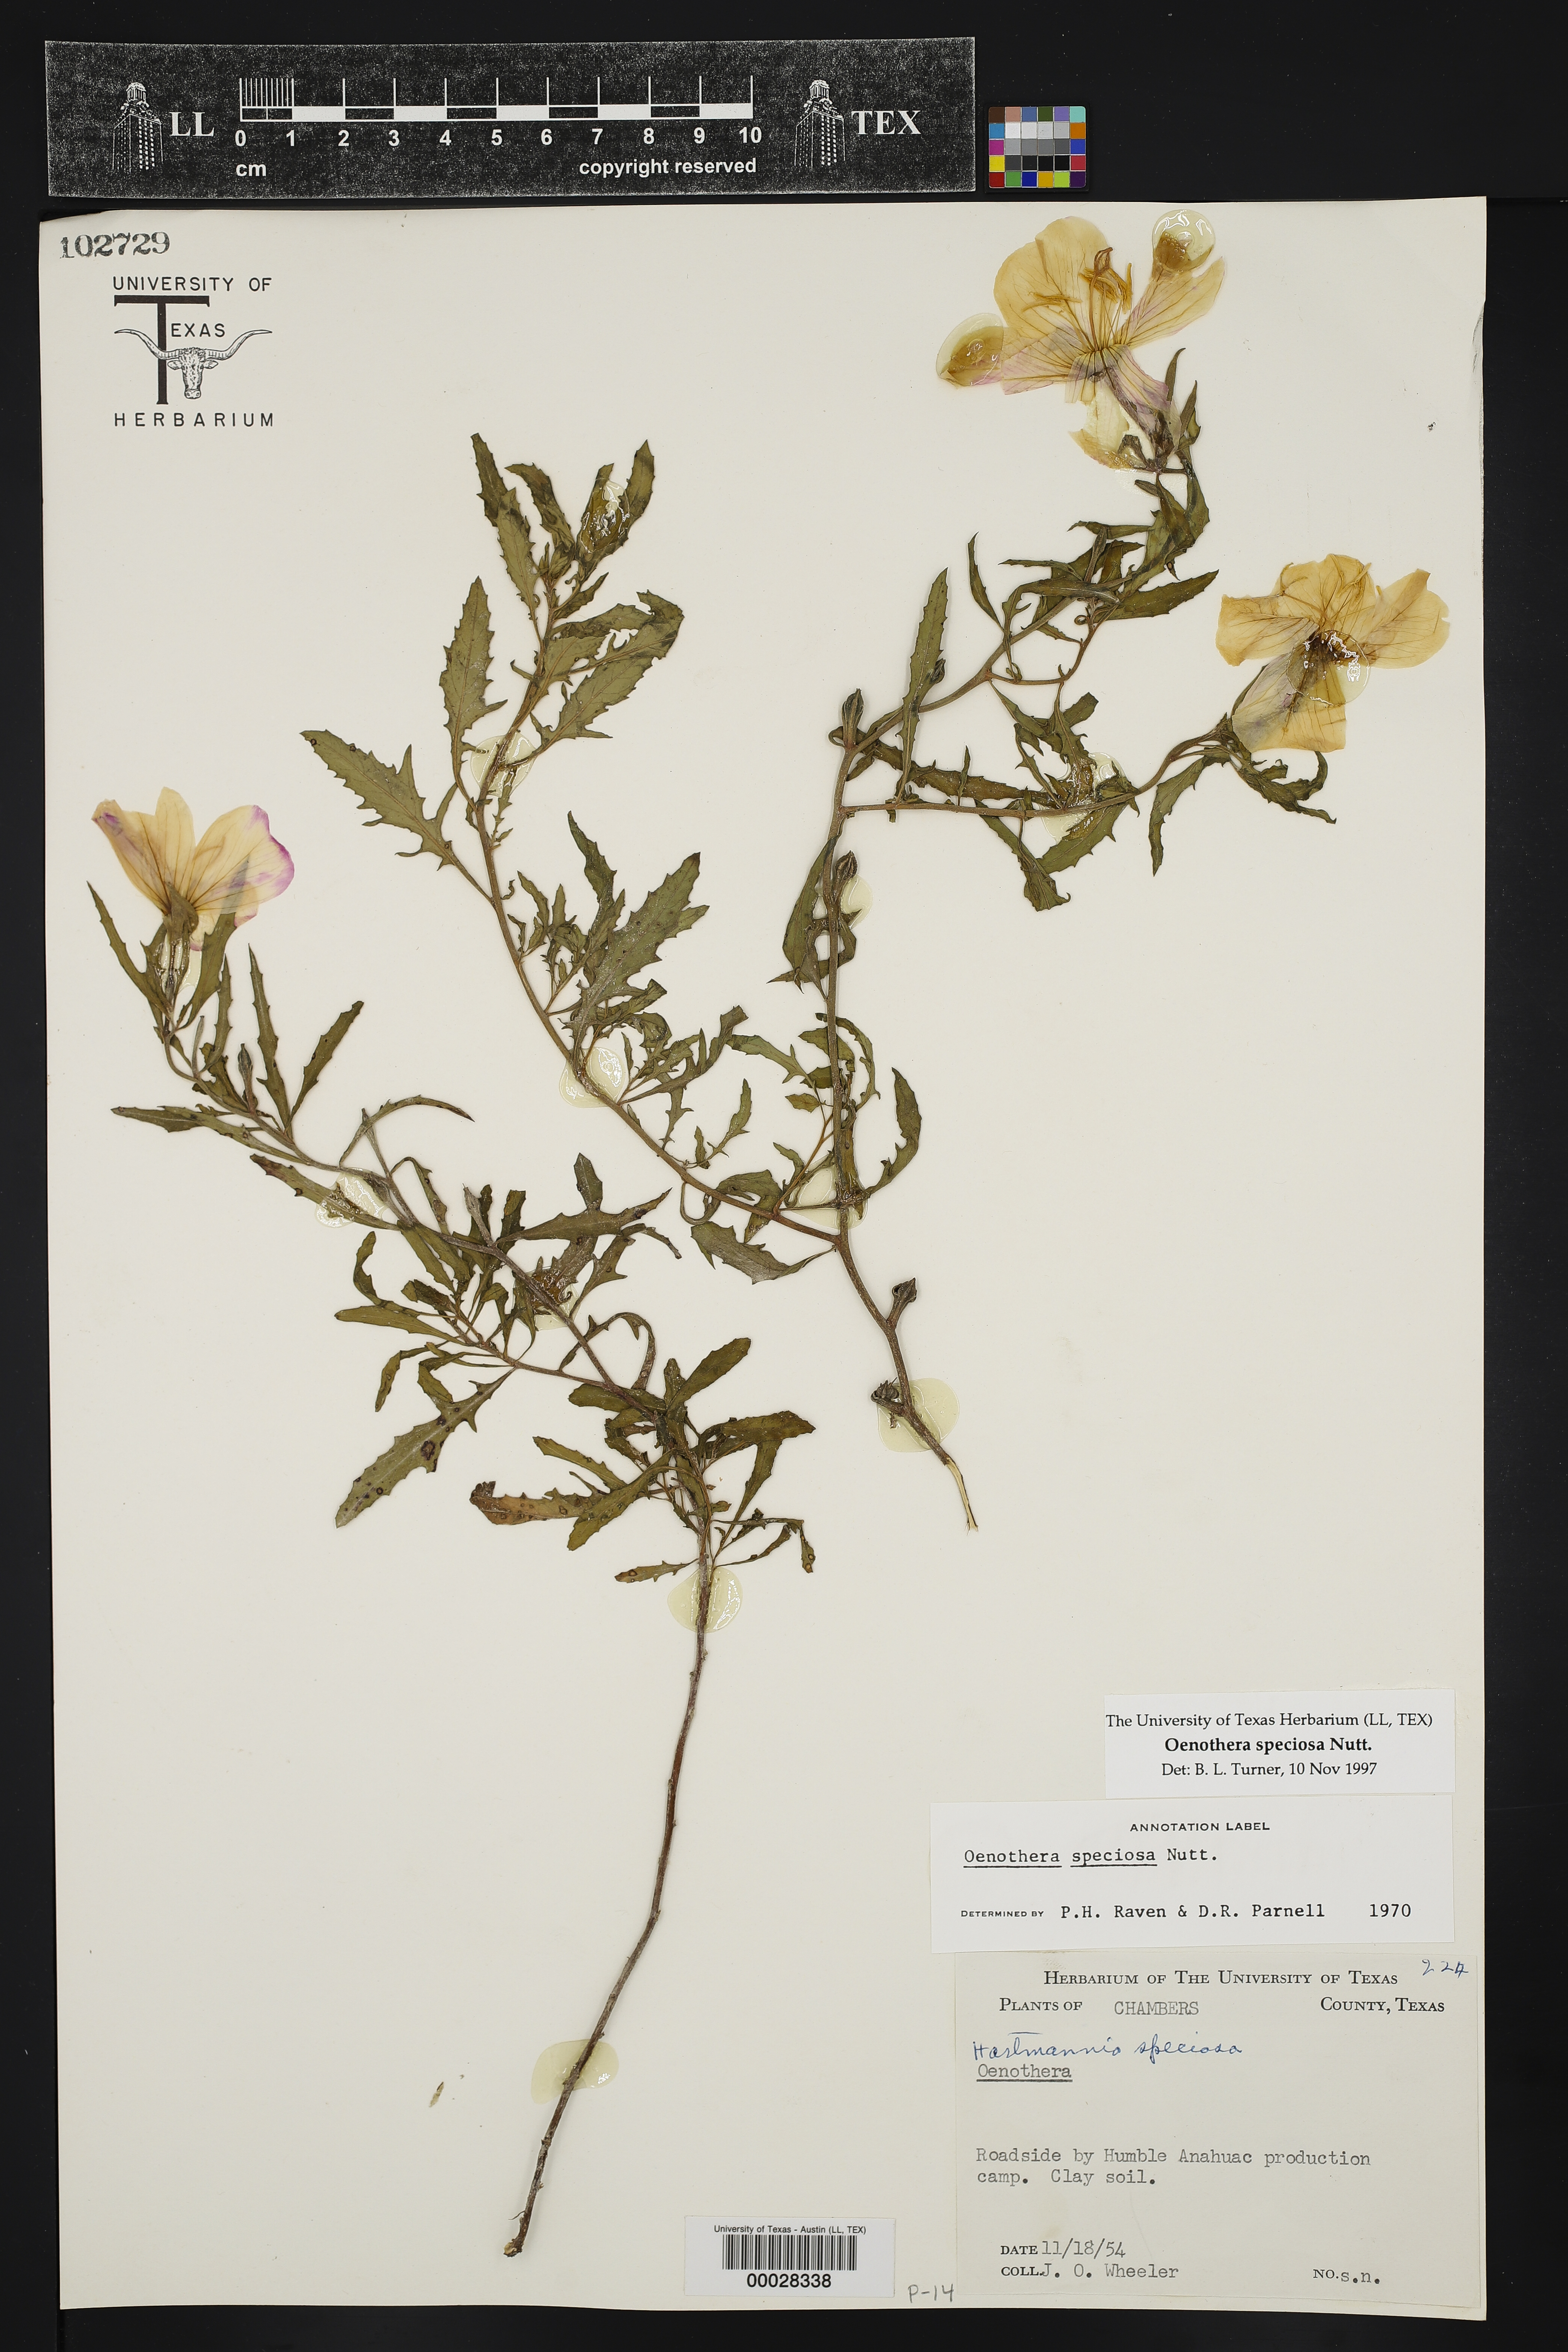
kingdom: Plantae
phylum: Tracheophyta
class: Magnoliopsida
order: Myrtales
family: Onagraceae
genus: Oenothera
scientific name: Oenothera speciosa
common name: White evening-primrose
